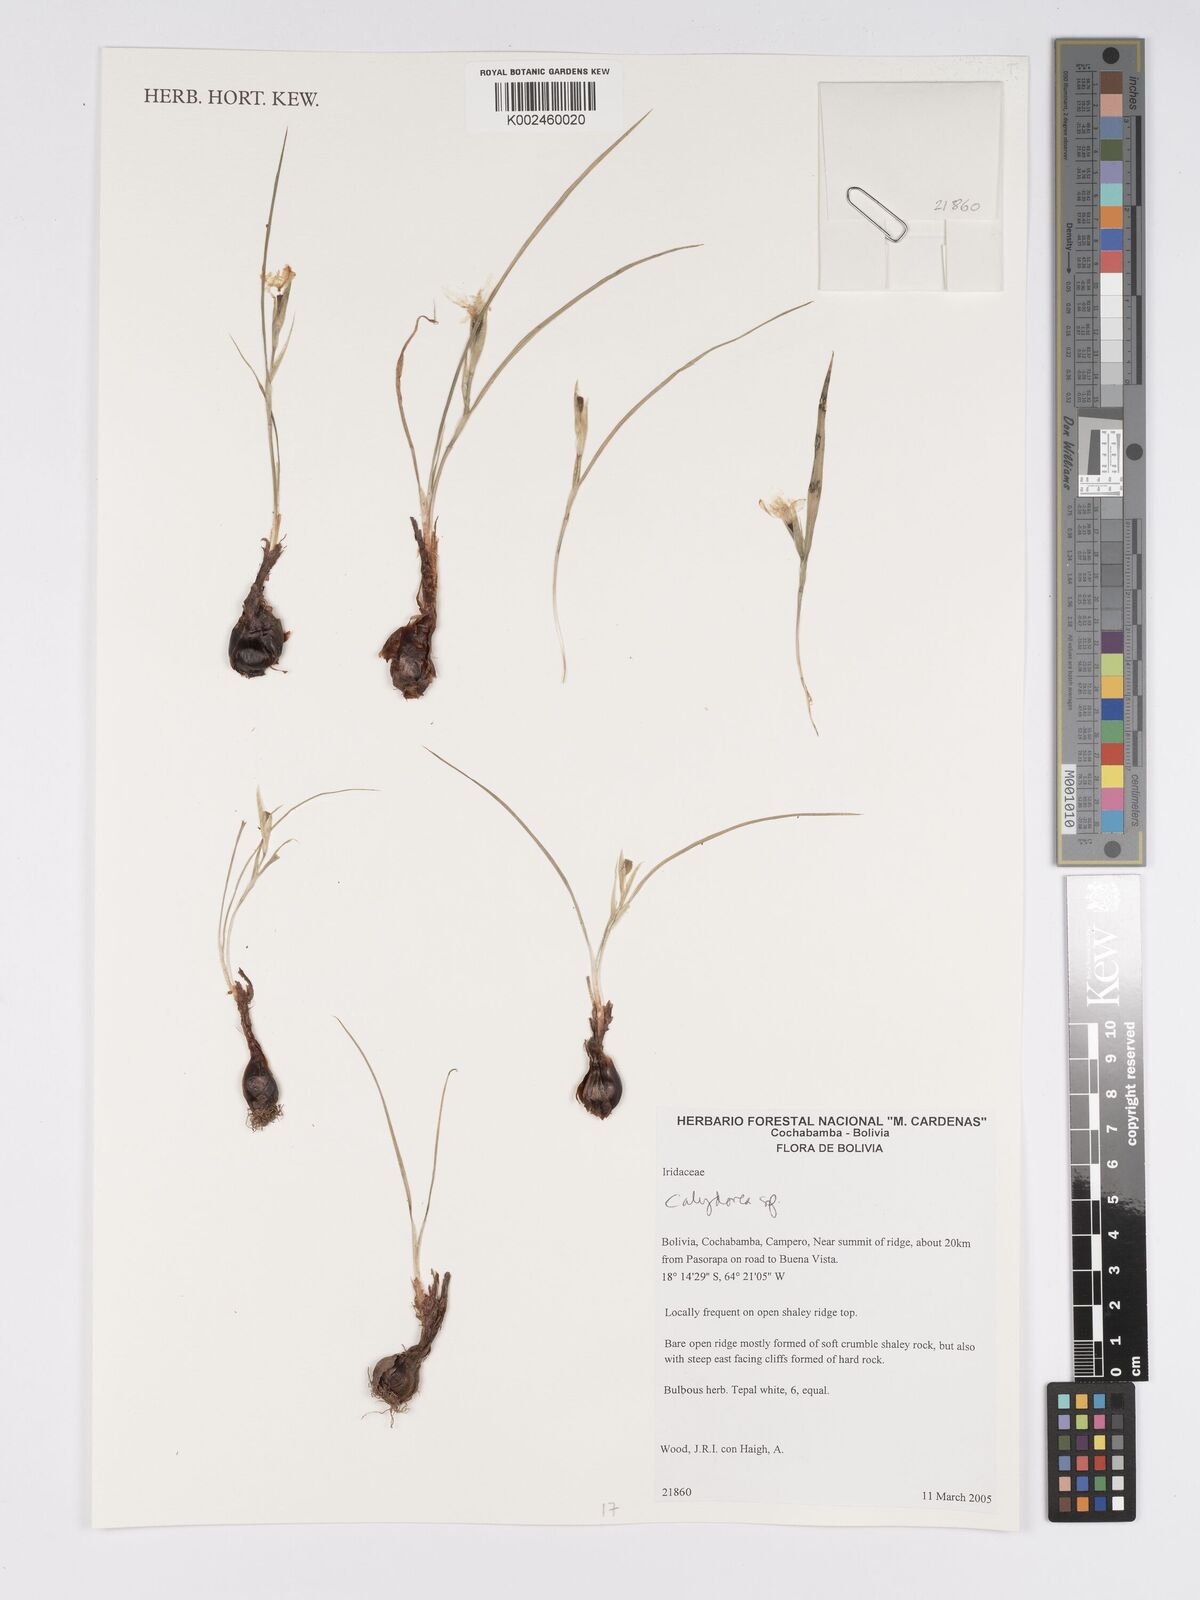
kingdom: Plantae
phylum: Tracheophyta
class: Liliopsida
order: Asparagales
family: Iridaceae
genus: Calydorea
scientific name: Calydorea
